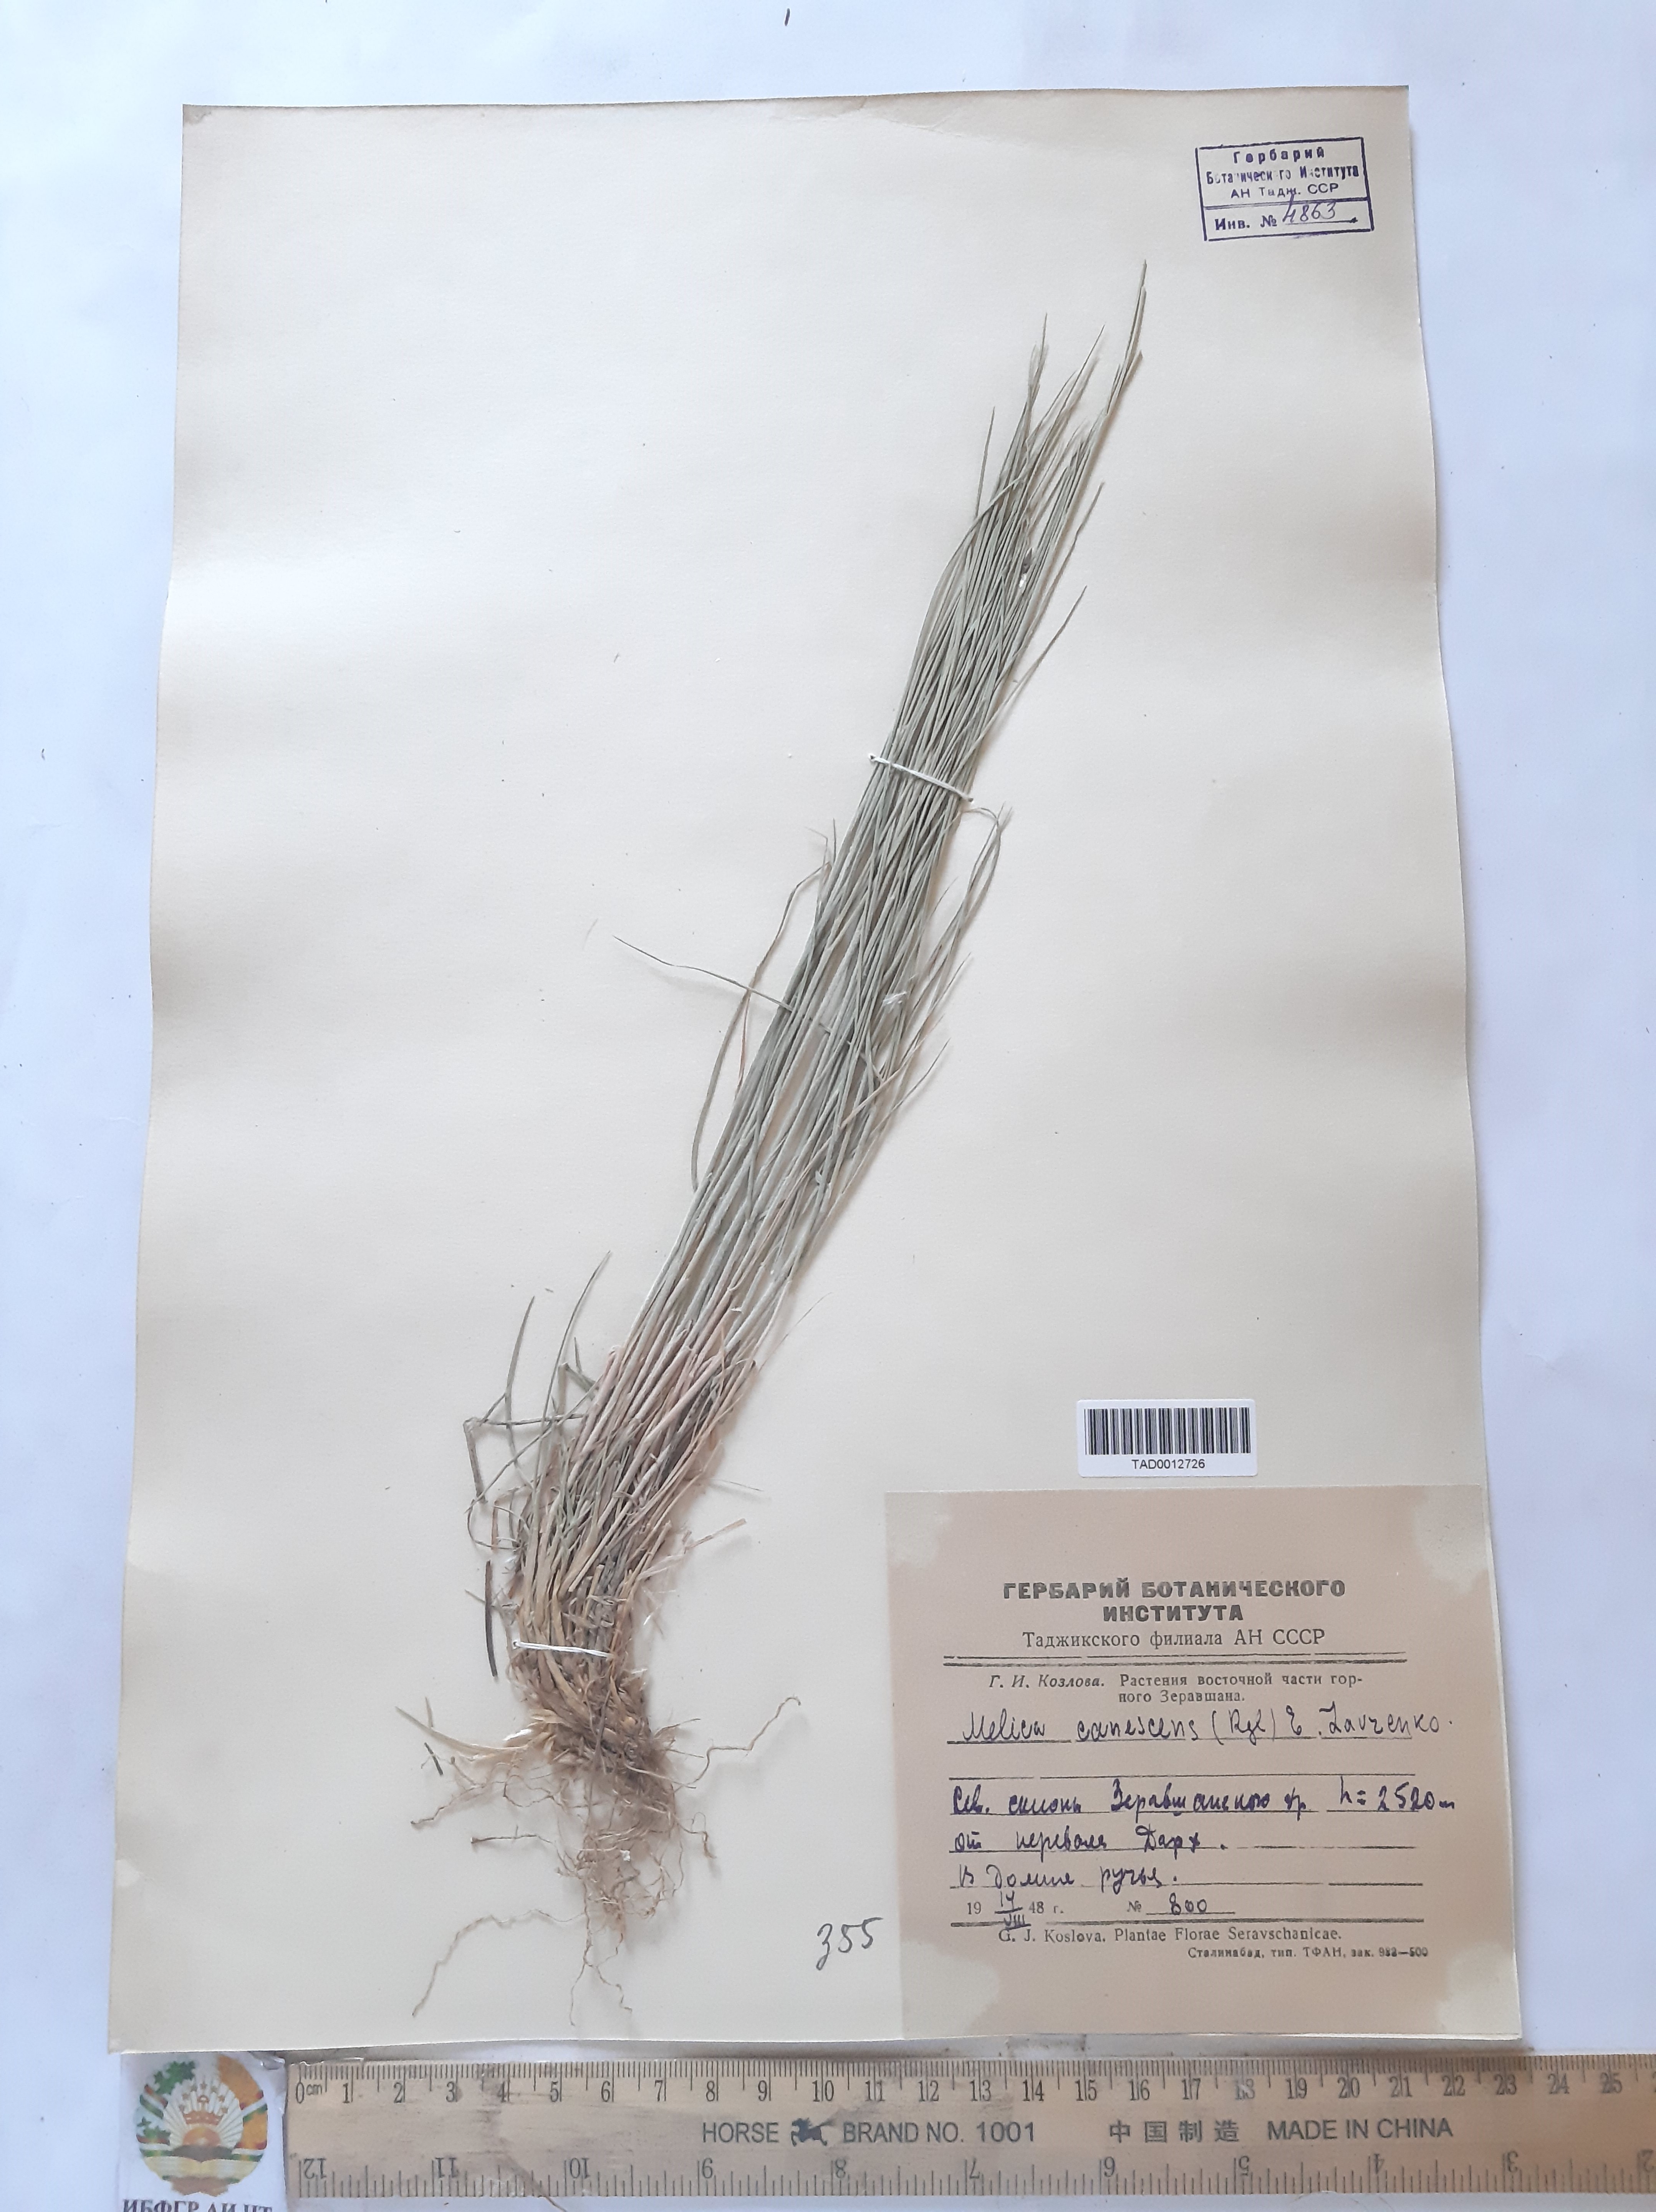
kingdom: Plantae
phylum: Tracheophyta
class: Liliopsida
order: Poales
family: Poaceae
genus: Melica
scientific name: Melica persica
